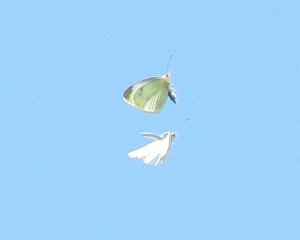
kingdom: Animalia
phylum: Arthropoda
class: Insecta
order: Lepidoptera
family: Pieridae
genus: Pieris
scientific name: Pieris rapae
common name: Cabbage White
